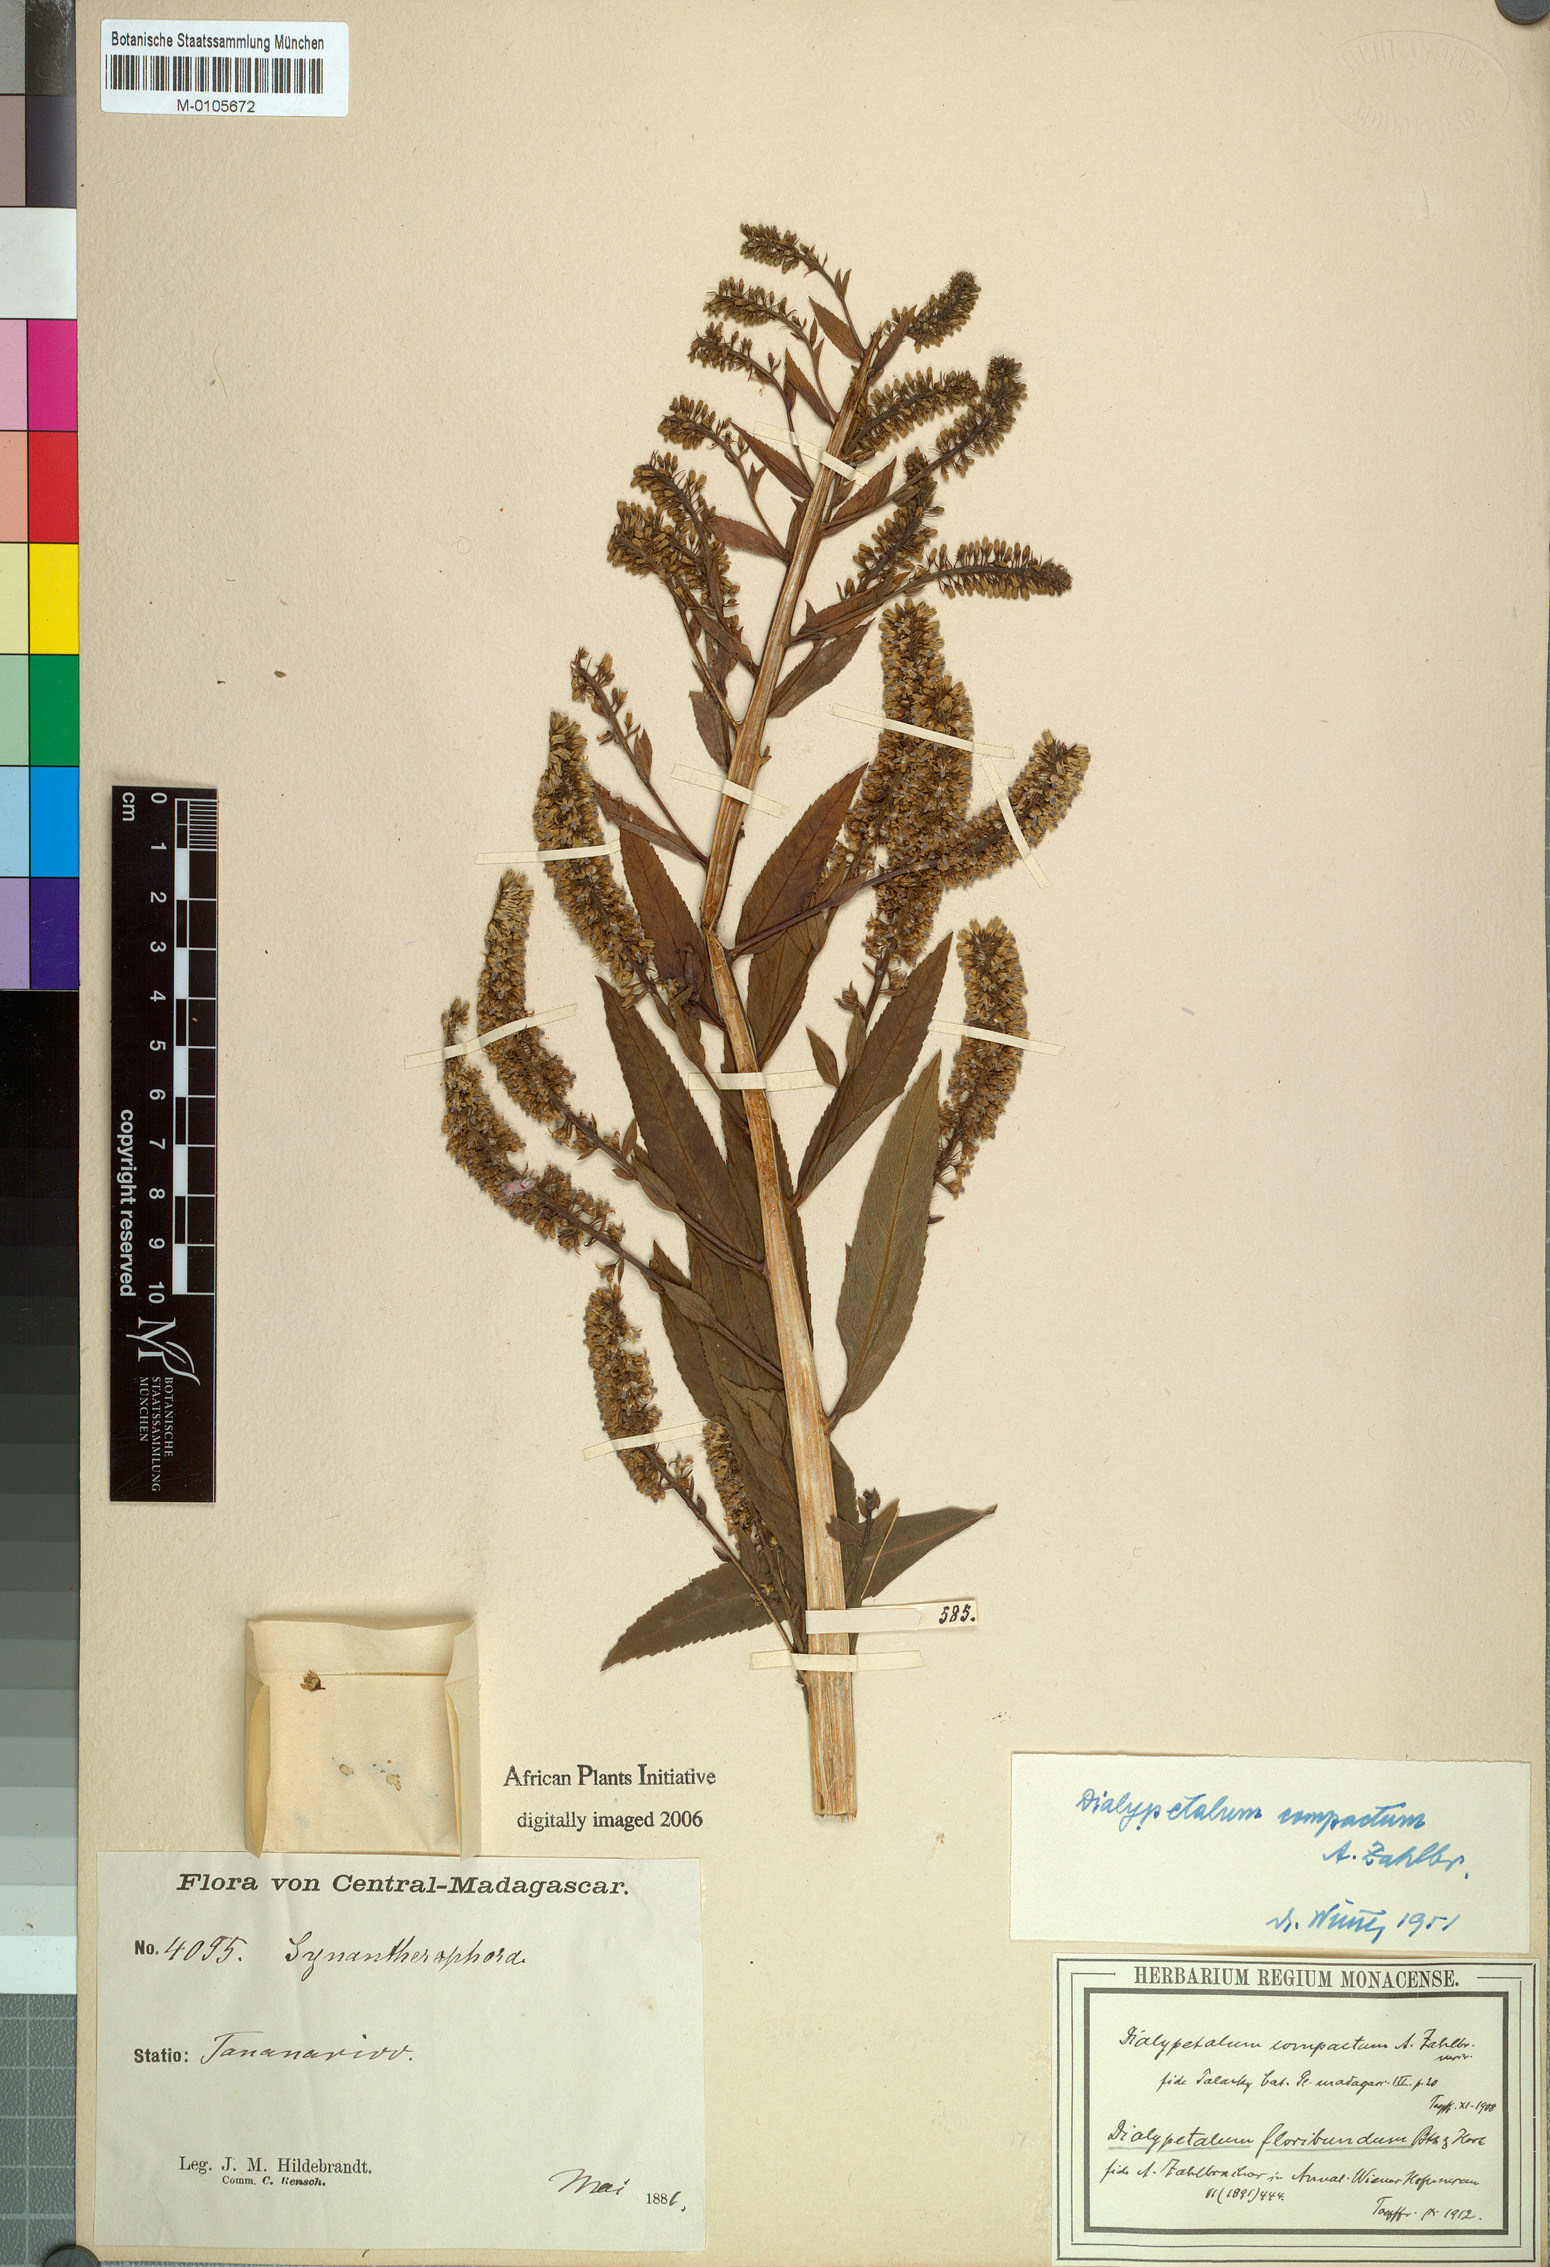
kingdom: Plantae
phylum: Tracheophyta
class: Magnoliopsida
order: Asterales
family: Campanulaceae
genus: Dialypetalum
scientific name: Dialypetalum compactum
